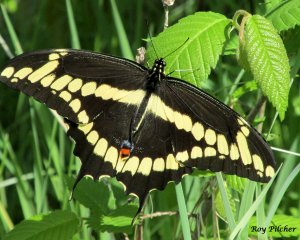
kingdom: Animalia
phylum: Arthropoda
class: Insecta
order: Lepidoptera
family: Papilionidae
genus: Papilio
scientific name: Papilio cresphontes
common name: Eastern Giant Swallowtail
